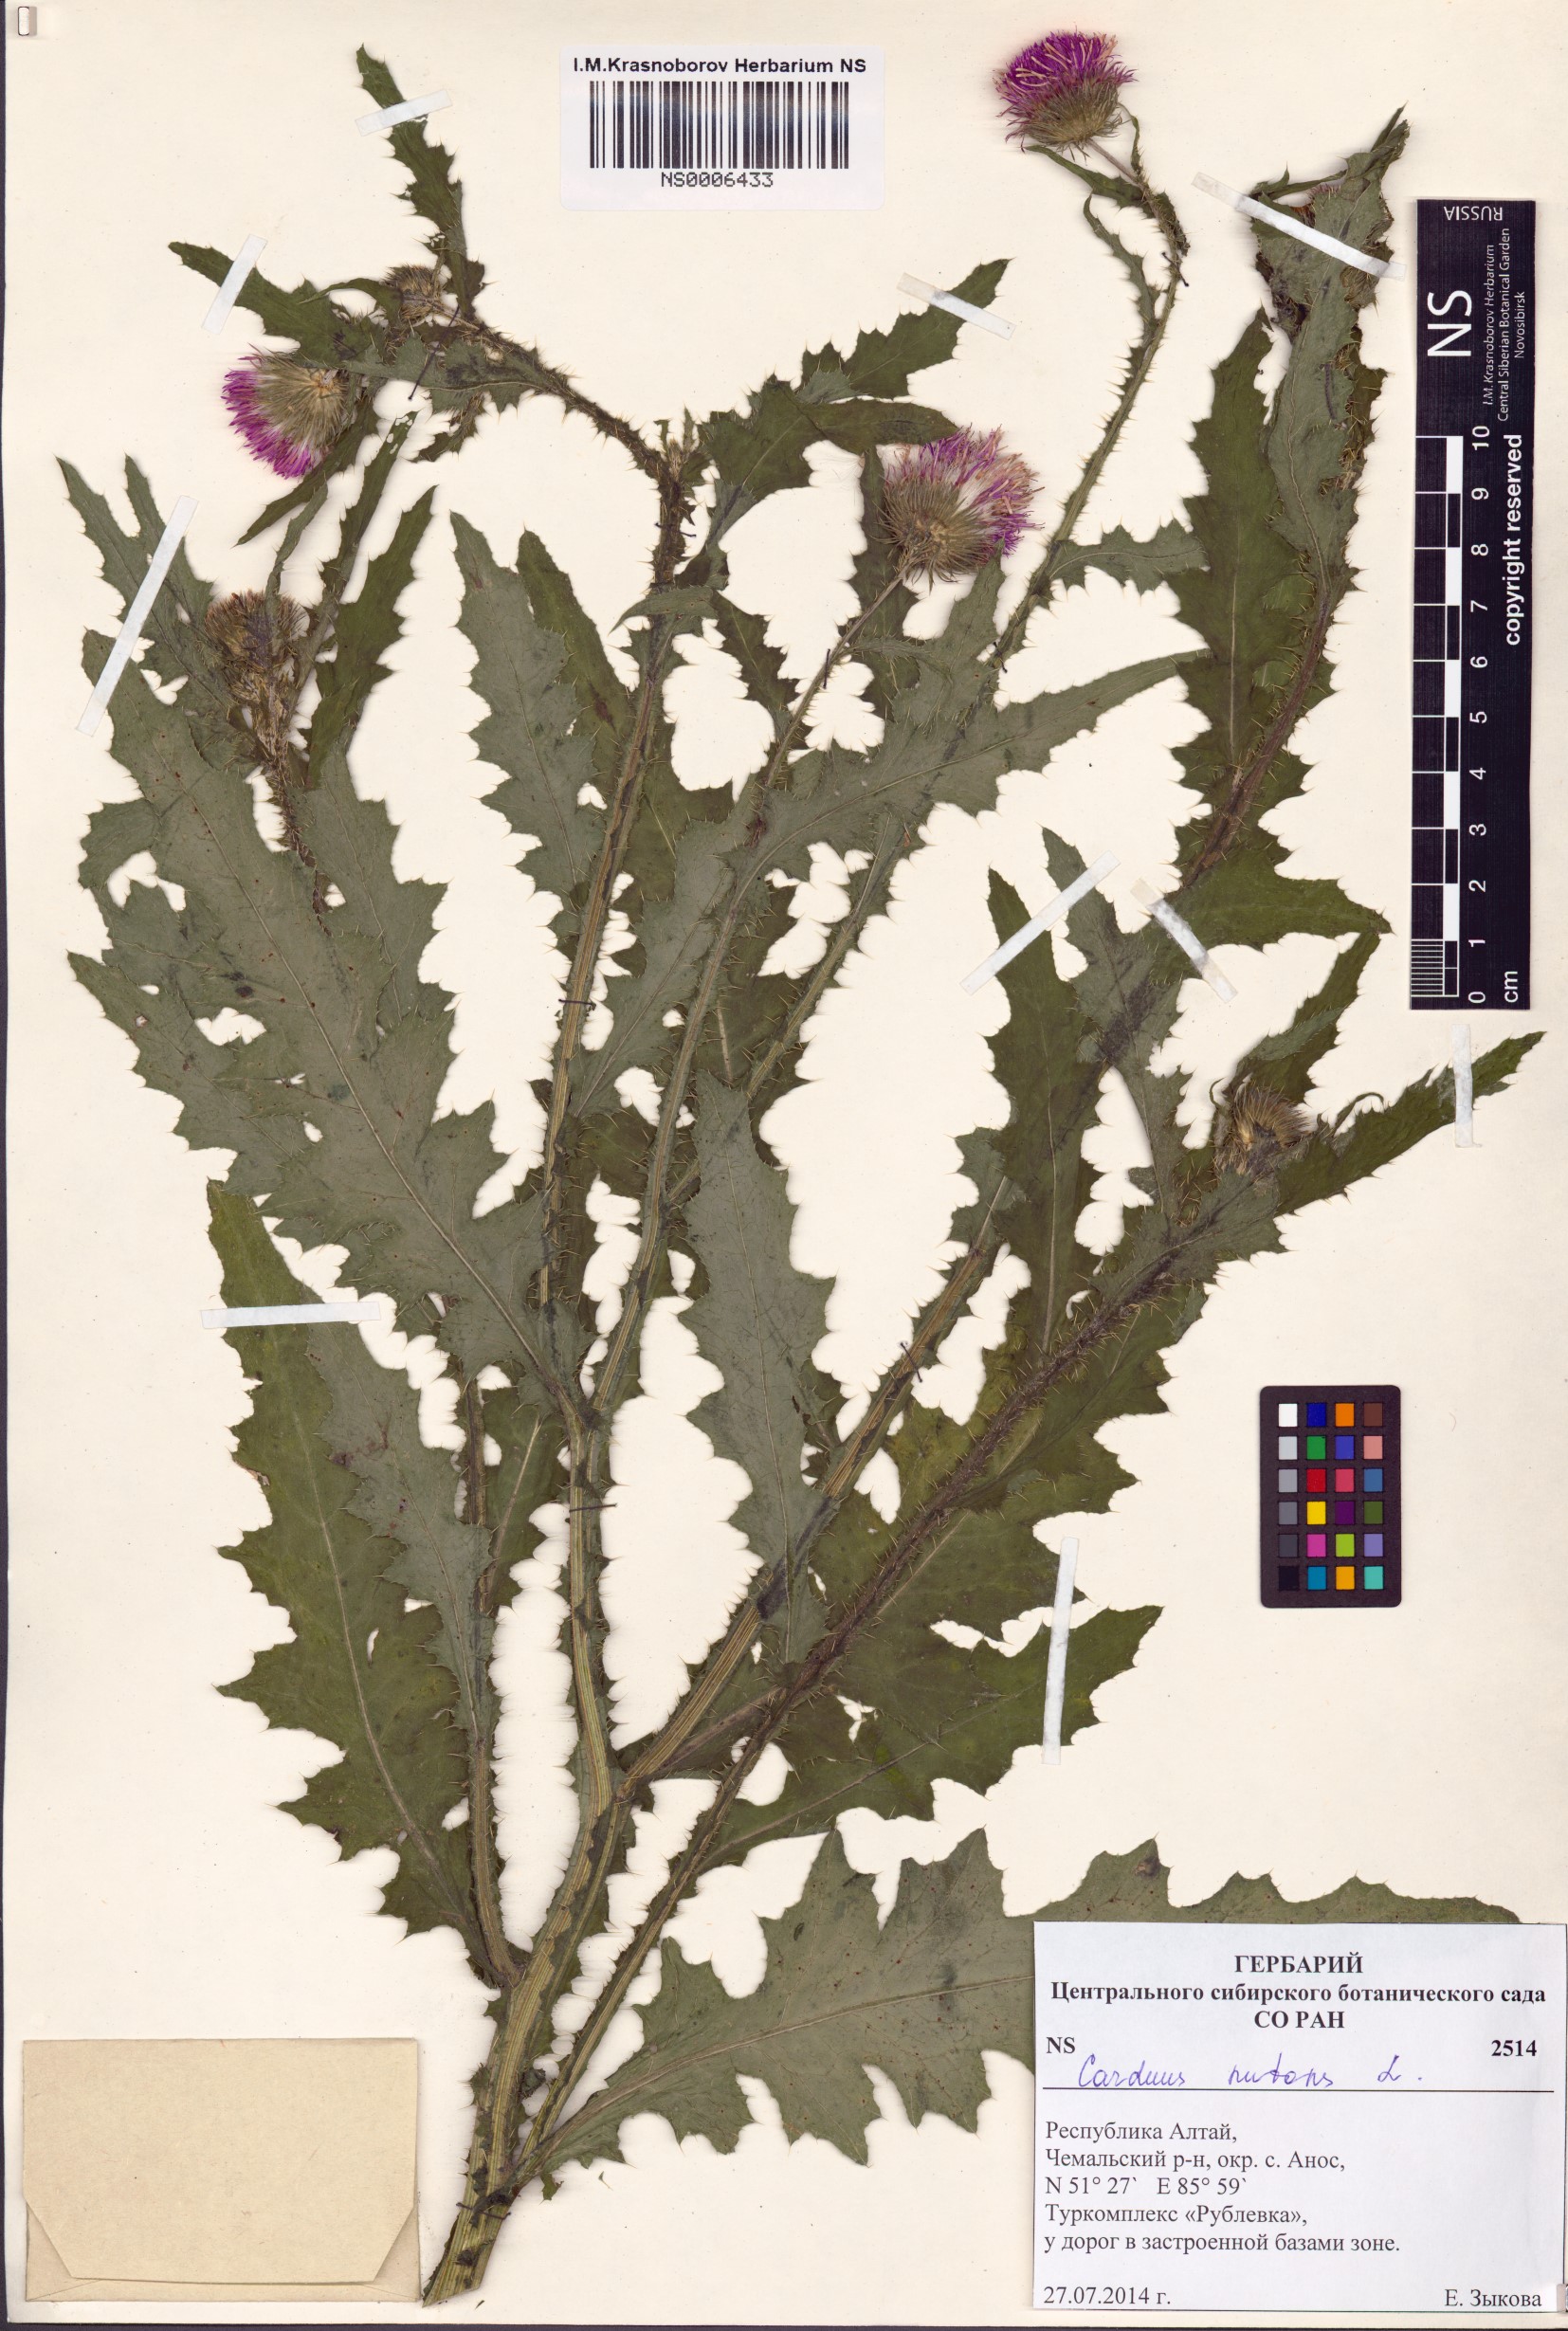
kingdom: Plantae
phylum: Tracheophyta
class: Magnoliopsida
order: Asterales
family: Asteraceae
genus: Carduus
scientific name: Carduus nutans
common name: Musk thistle
